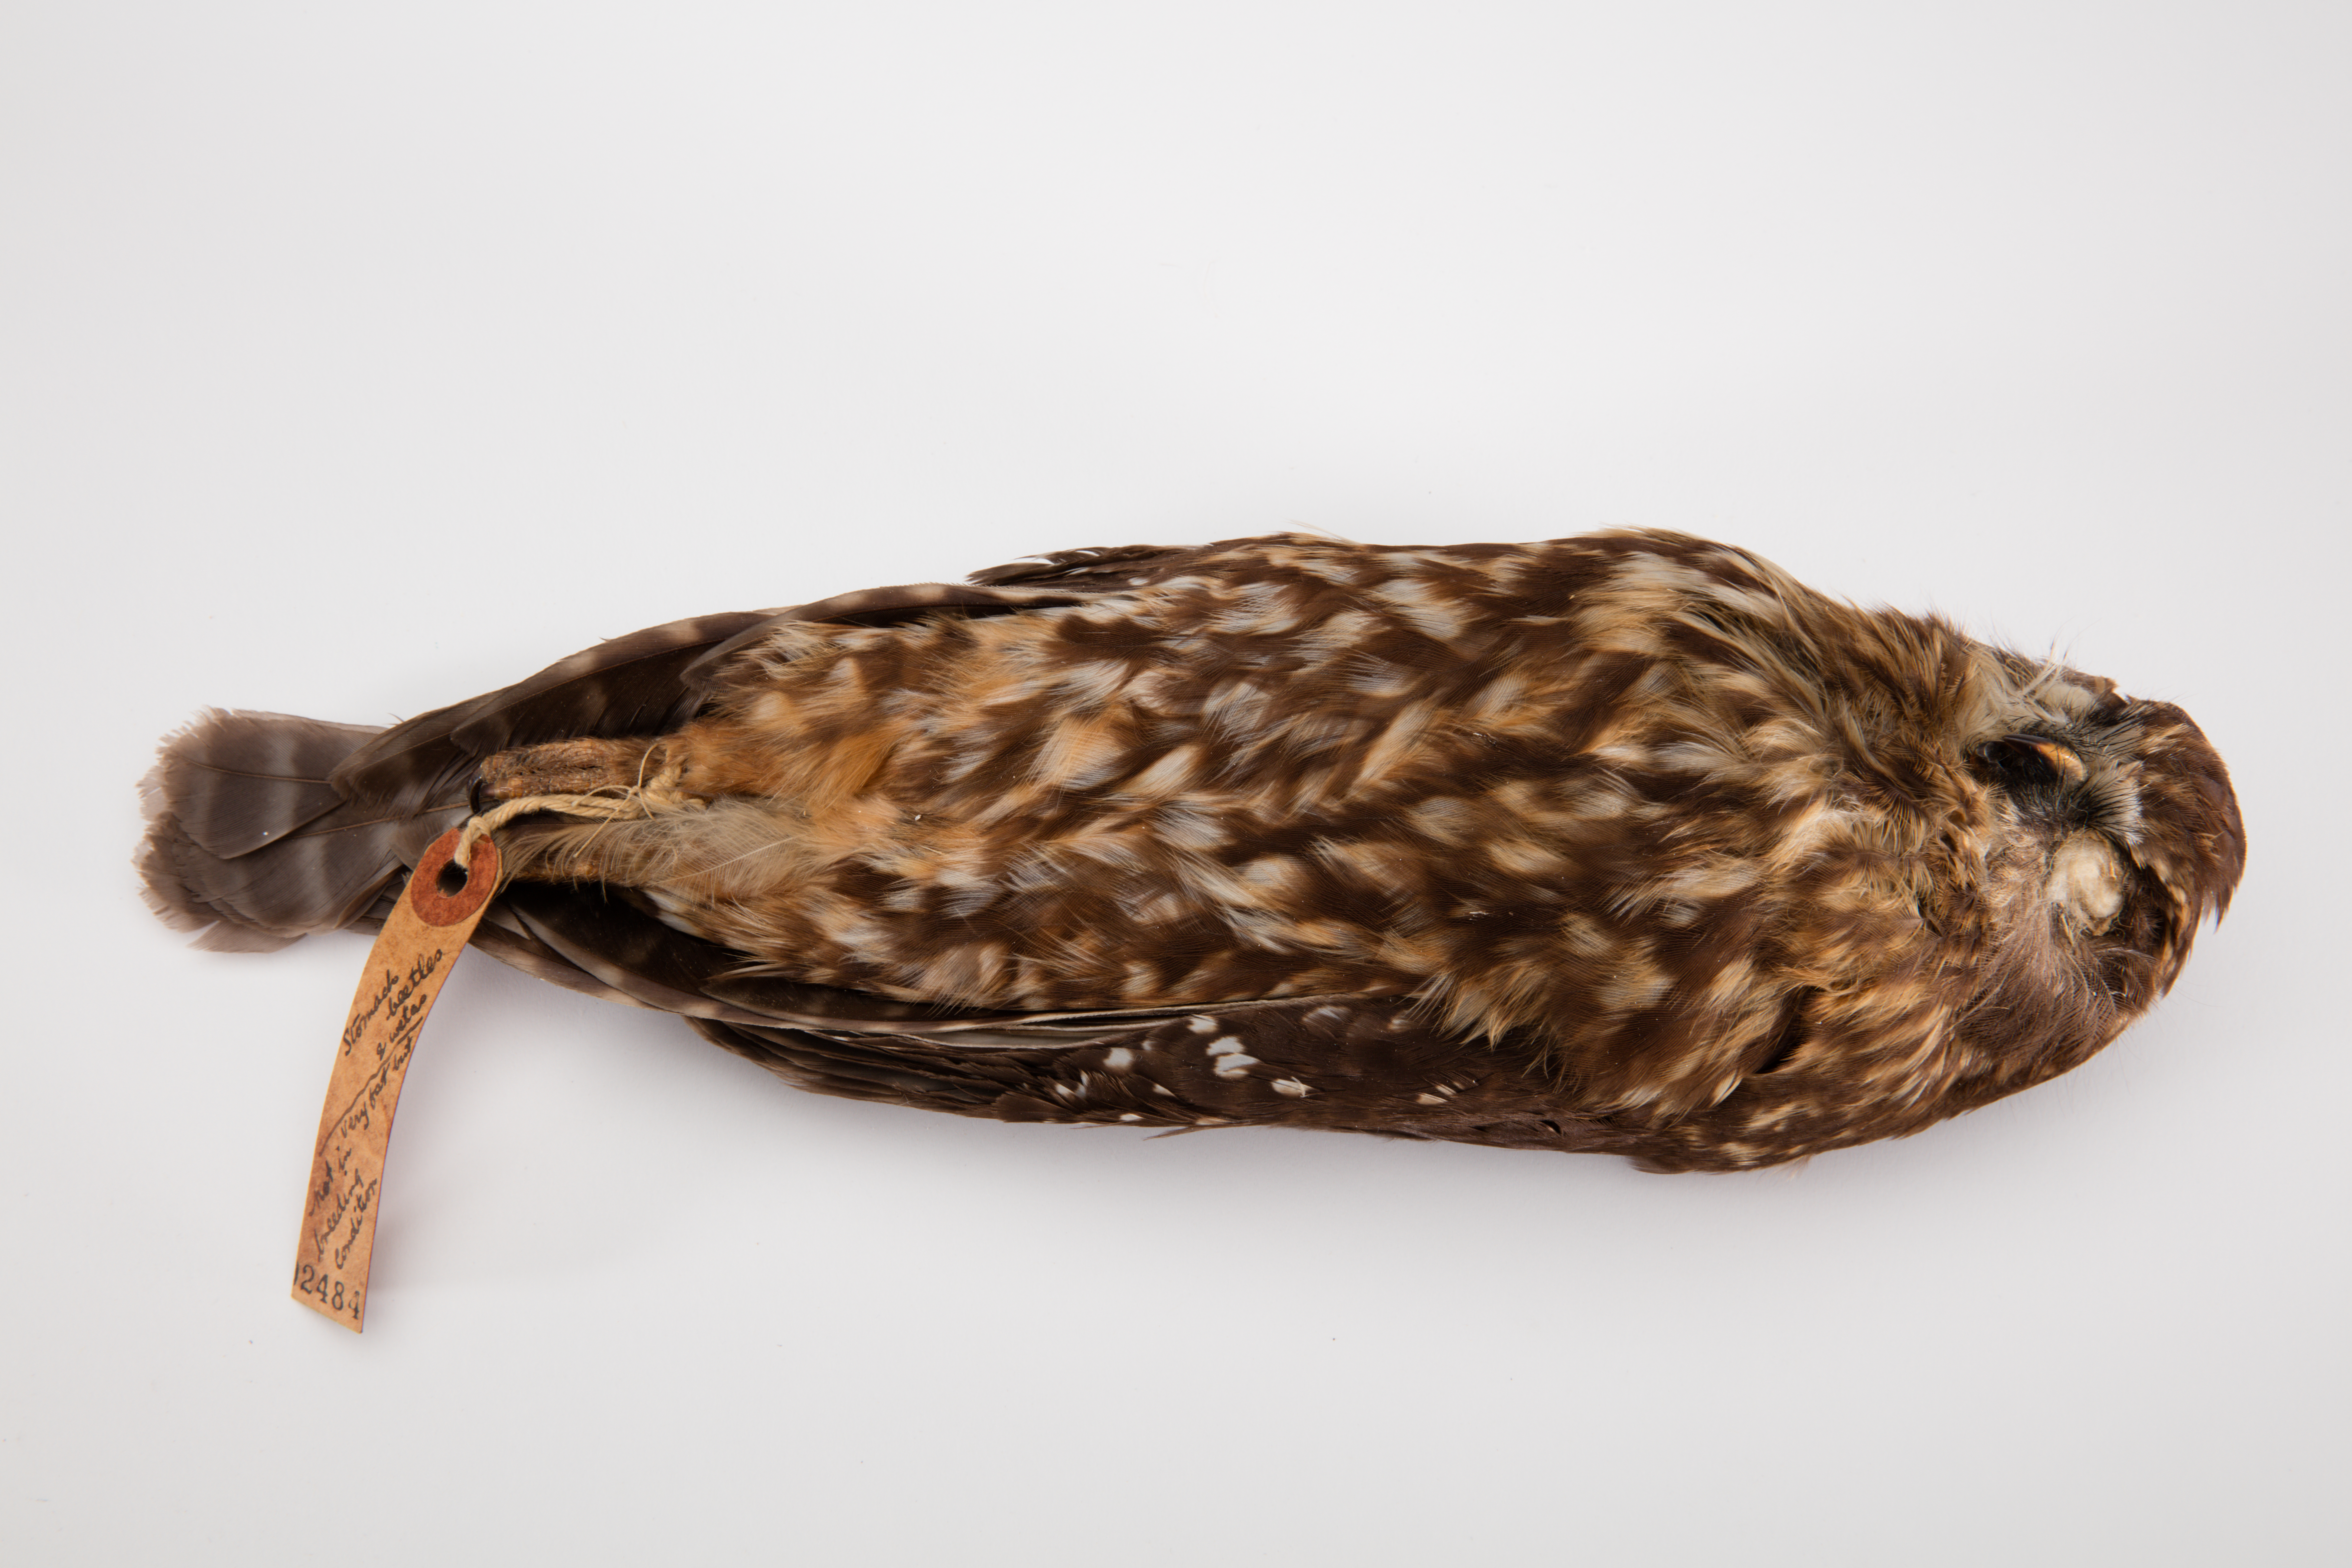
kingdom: Animalia
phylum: Chordata
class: Aves
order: Strigiformes
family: Strigidae
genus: Ninox
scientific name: Ninox novaeseelandiae
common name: Morepork
